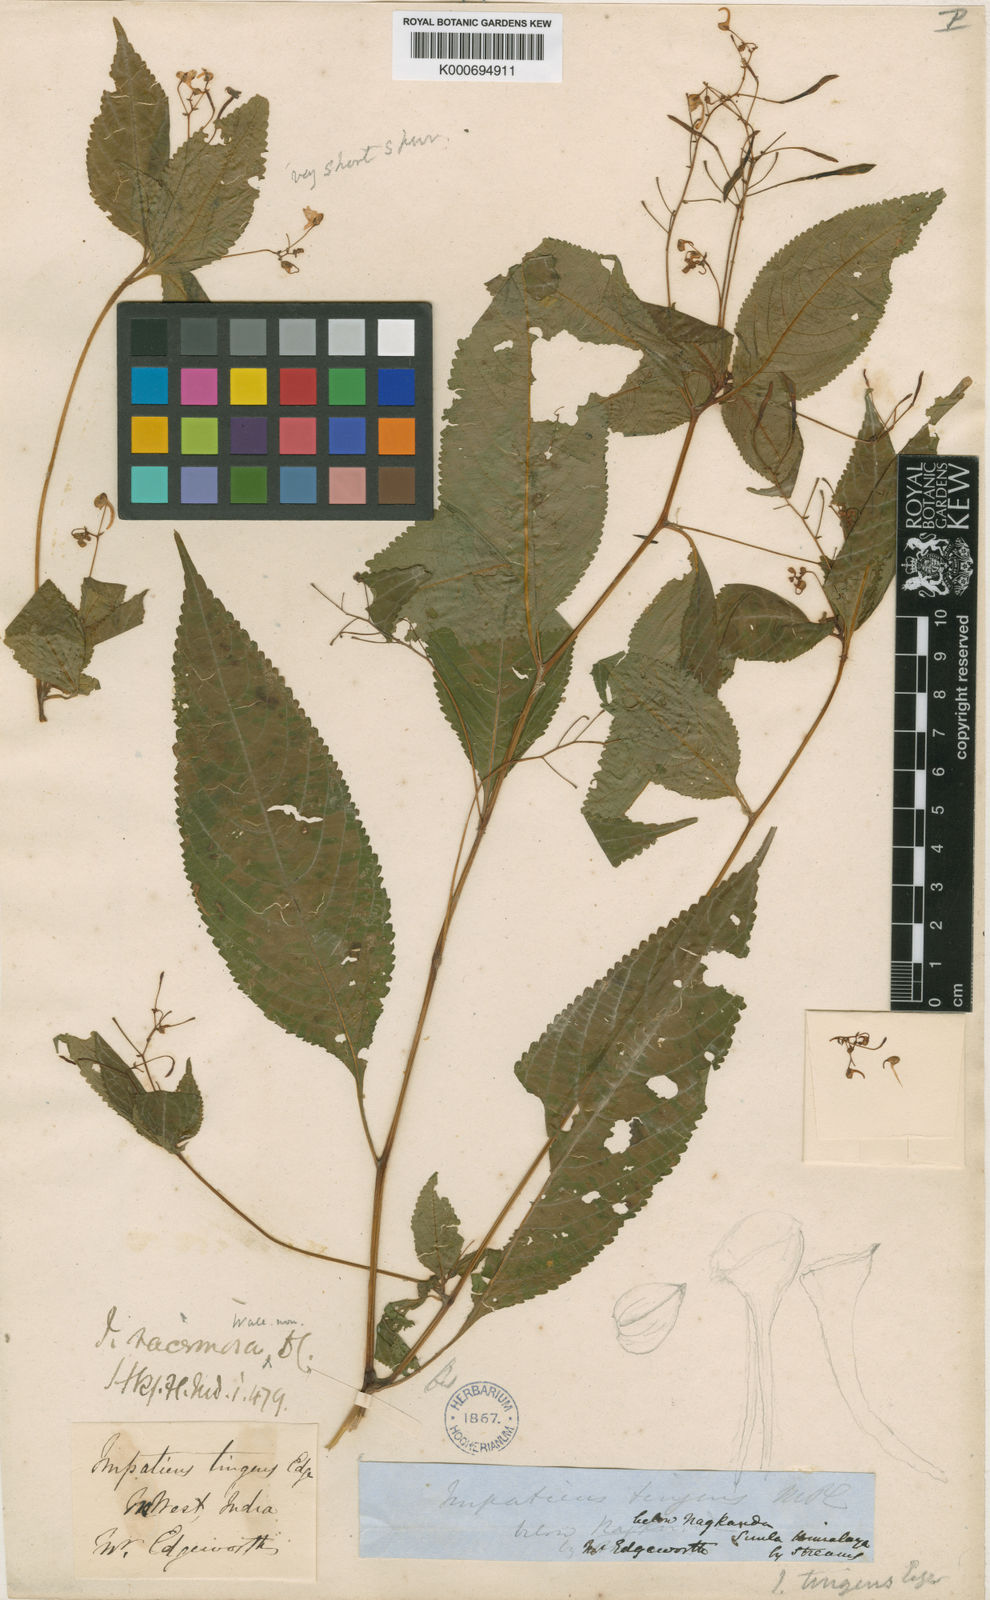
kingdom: Plantae
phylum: Tracheophyta
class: Magnoliopsida
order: Ericales
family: Balsaminaceae
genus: Impatiens
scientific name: Impatiens laxiflora
